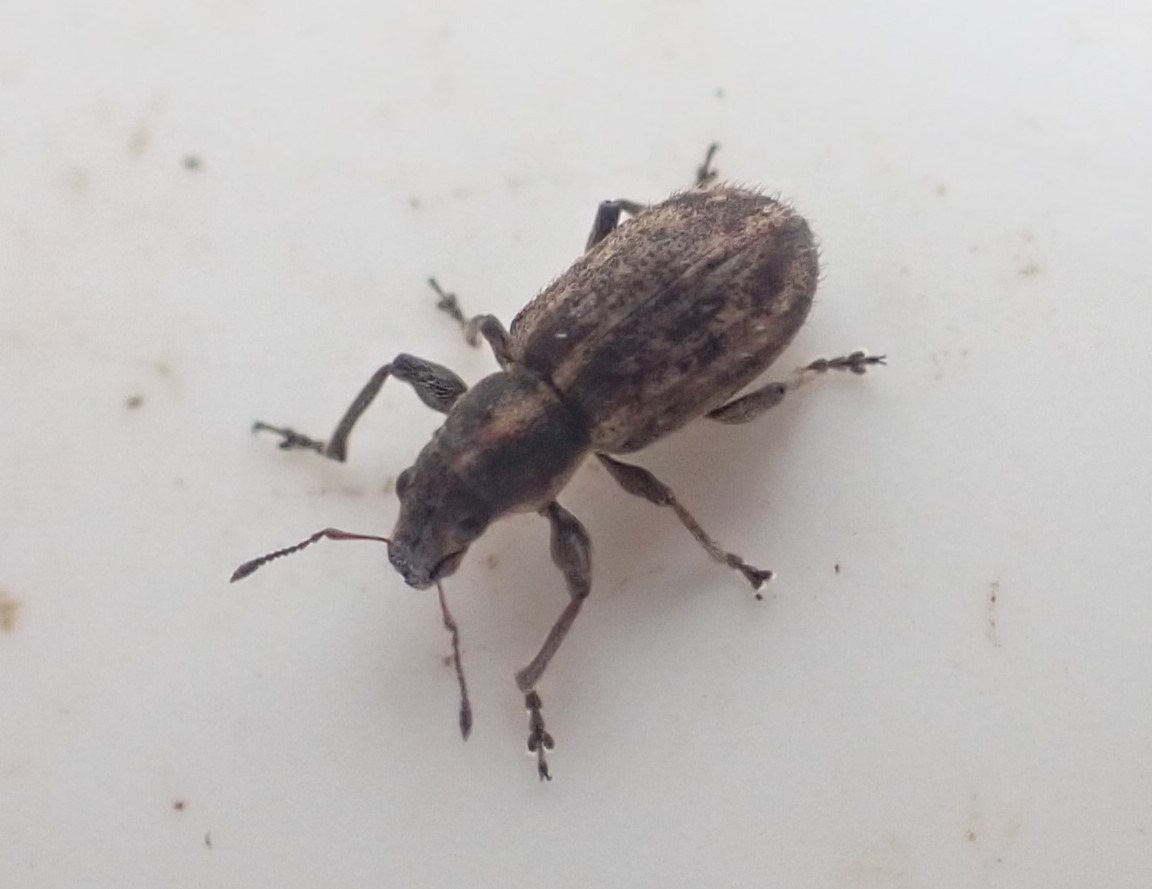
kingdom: Animalia
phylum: Arthropoda
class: Insecta
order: Coleoptera
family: Curculionidae
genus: Andrion
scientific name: Andrion regensteinense
